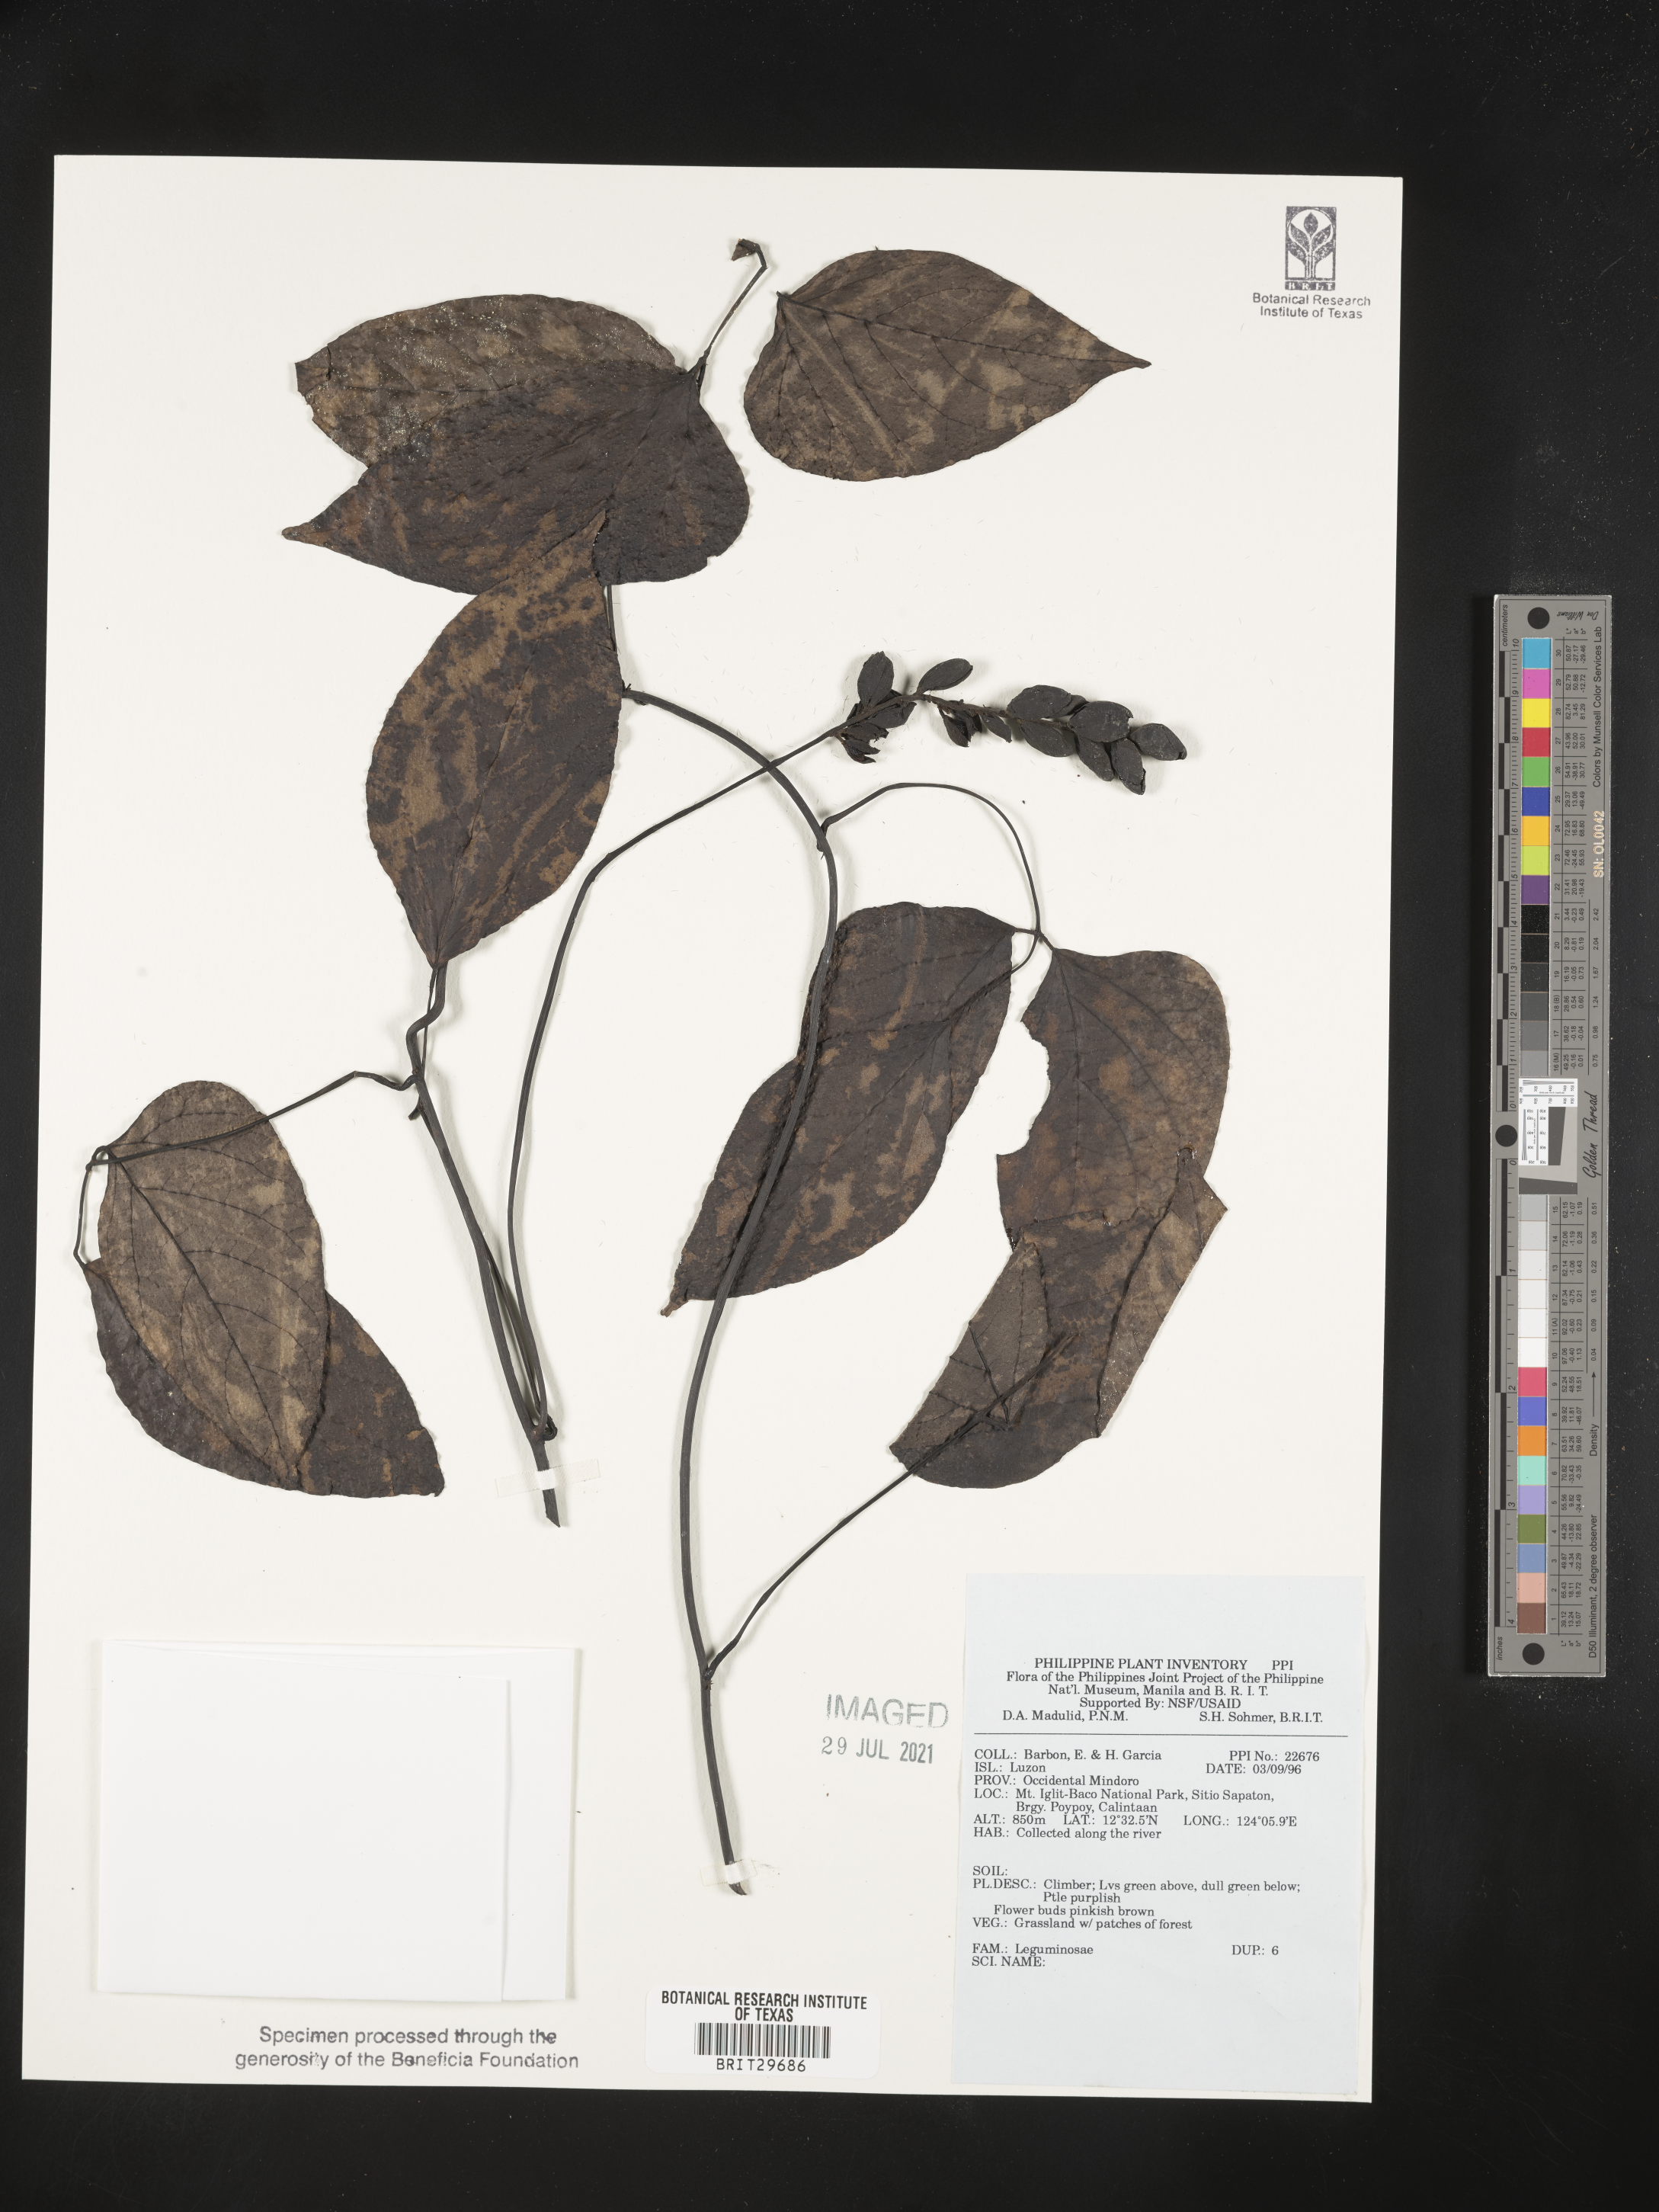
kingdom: Plantae
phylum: Tracheophyta
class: Magnoliopsida
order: Fabales
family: Fabaceae
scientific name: Fabaceae
